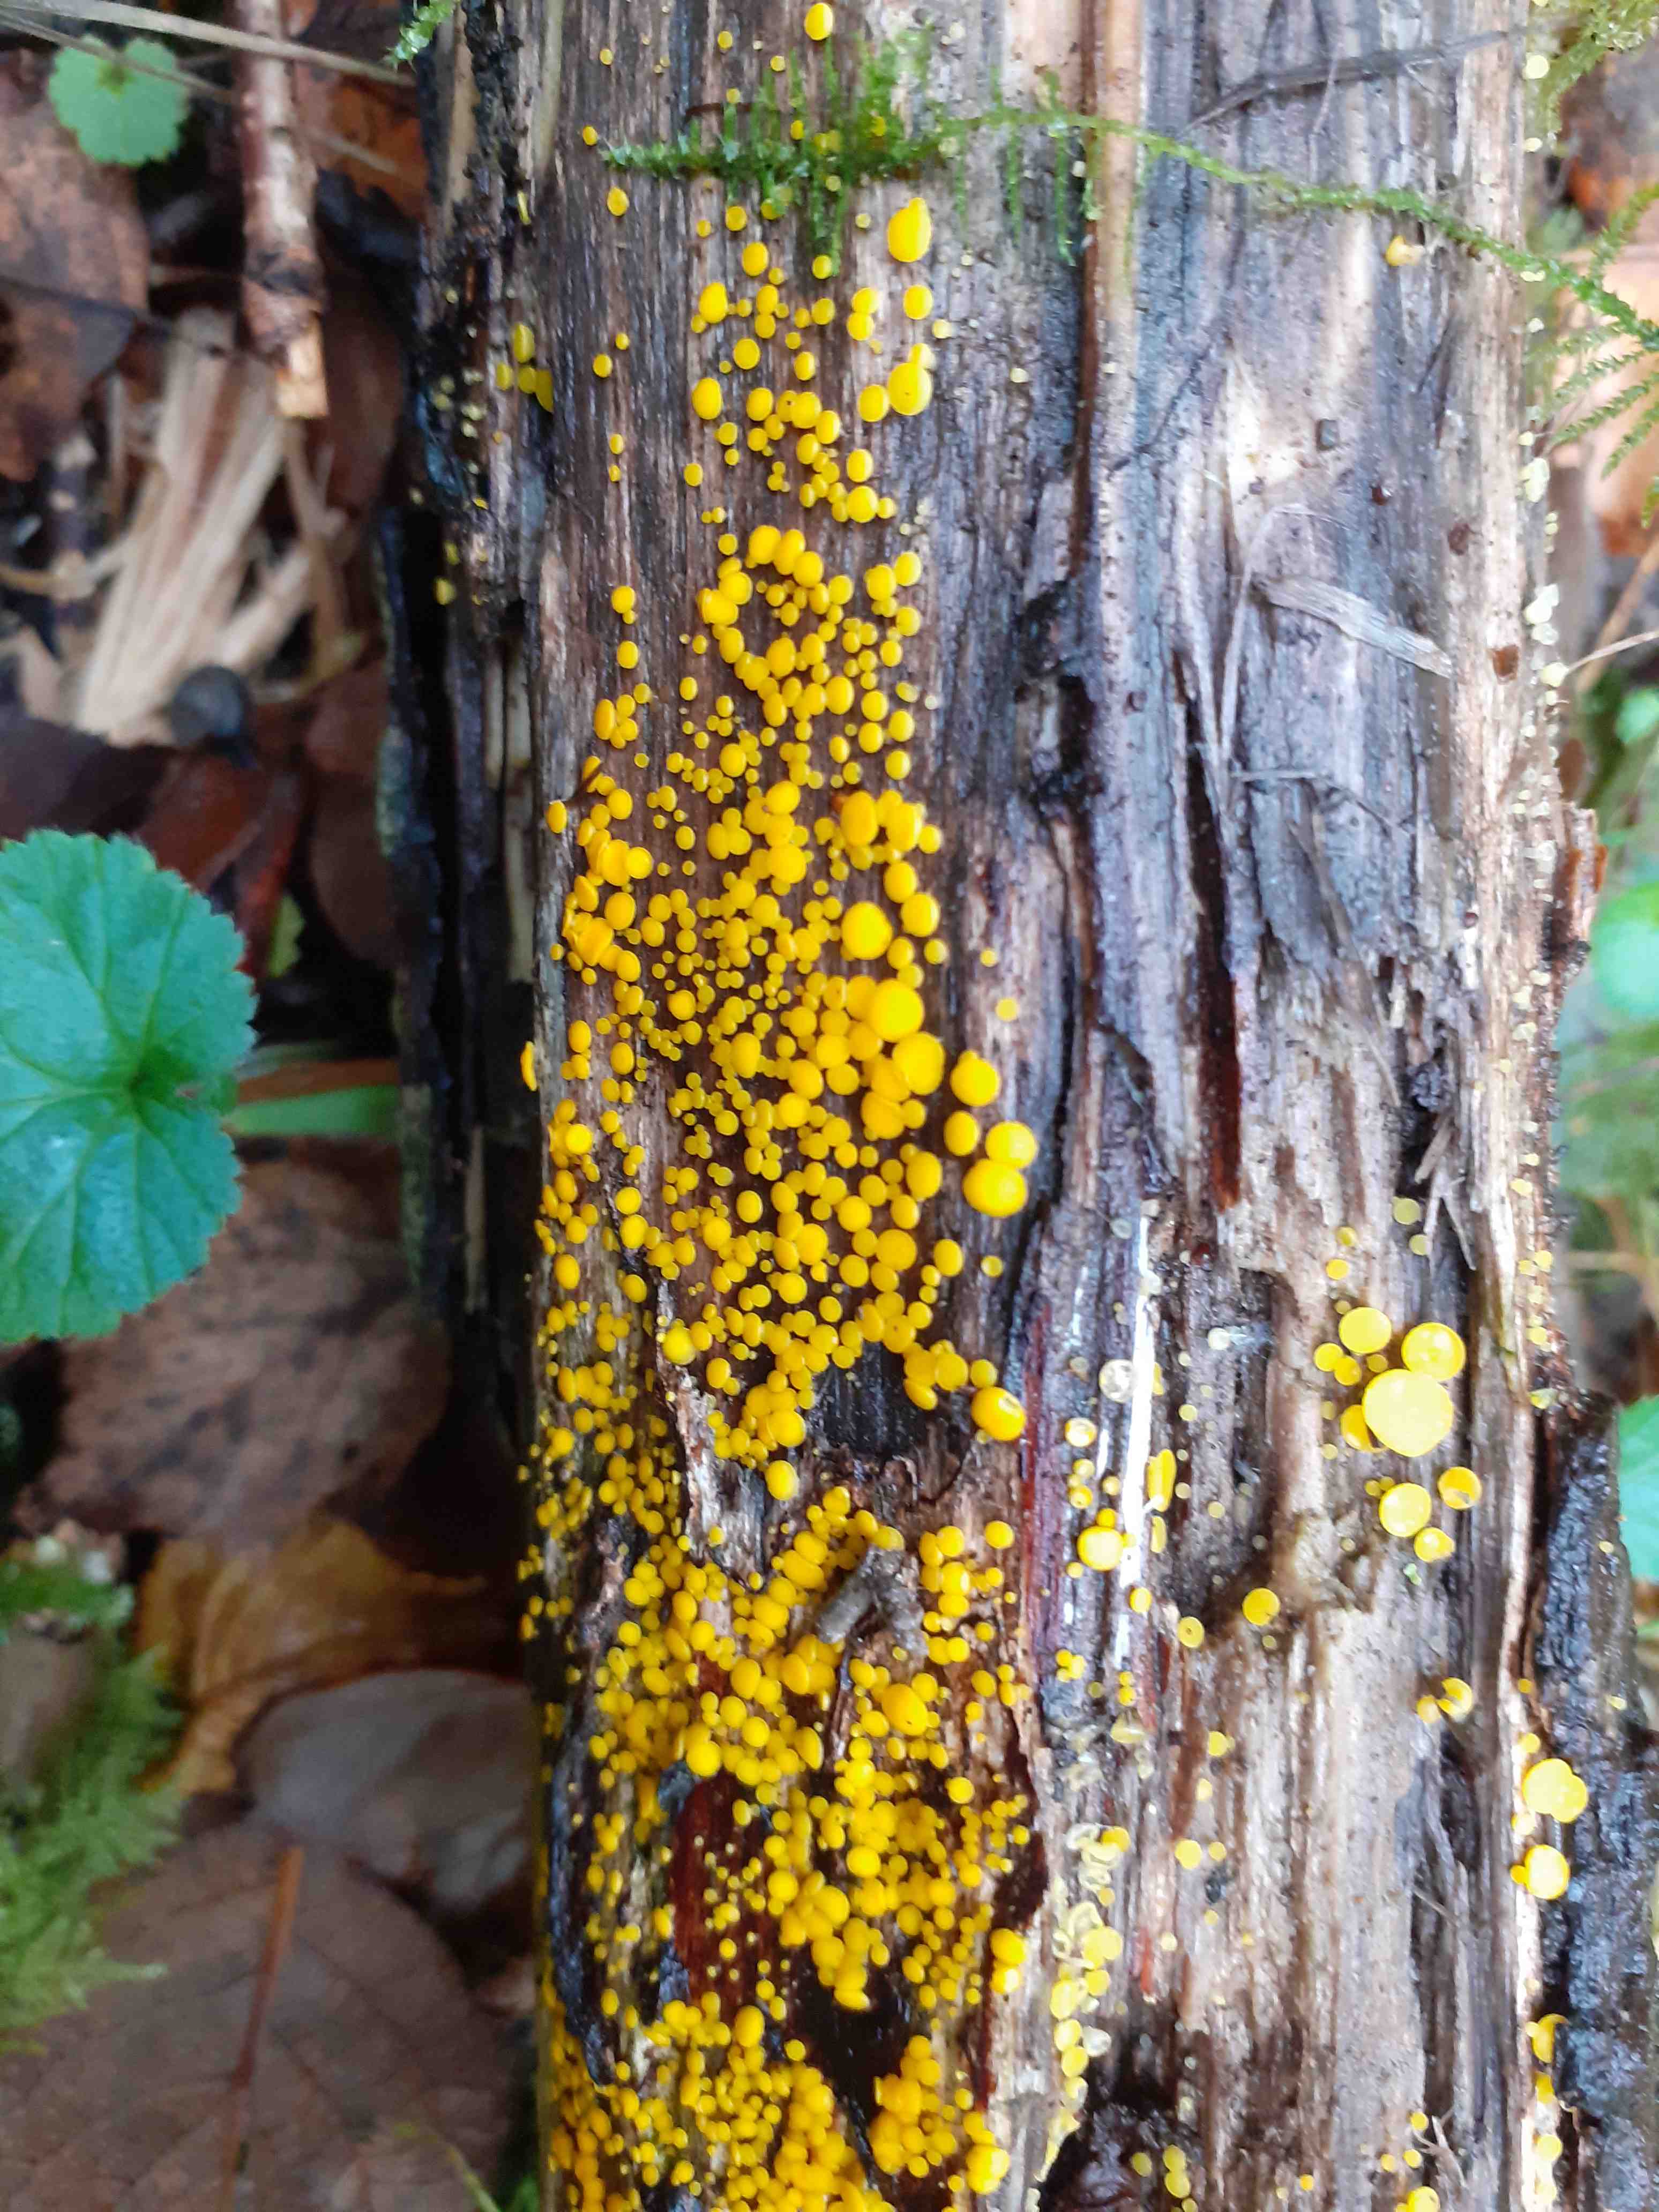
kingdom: Fungi
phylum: Ascomycota
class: Leotiomycetes
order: Helotiales
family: Pezizellaceae
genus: Calycina
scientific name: Calycina citrina
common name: almindelig gulskive
